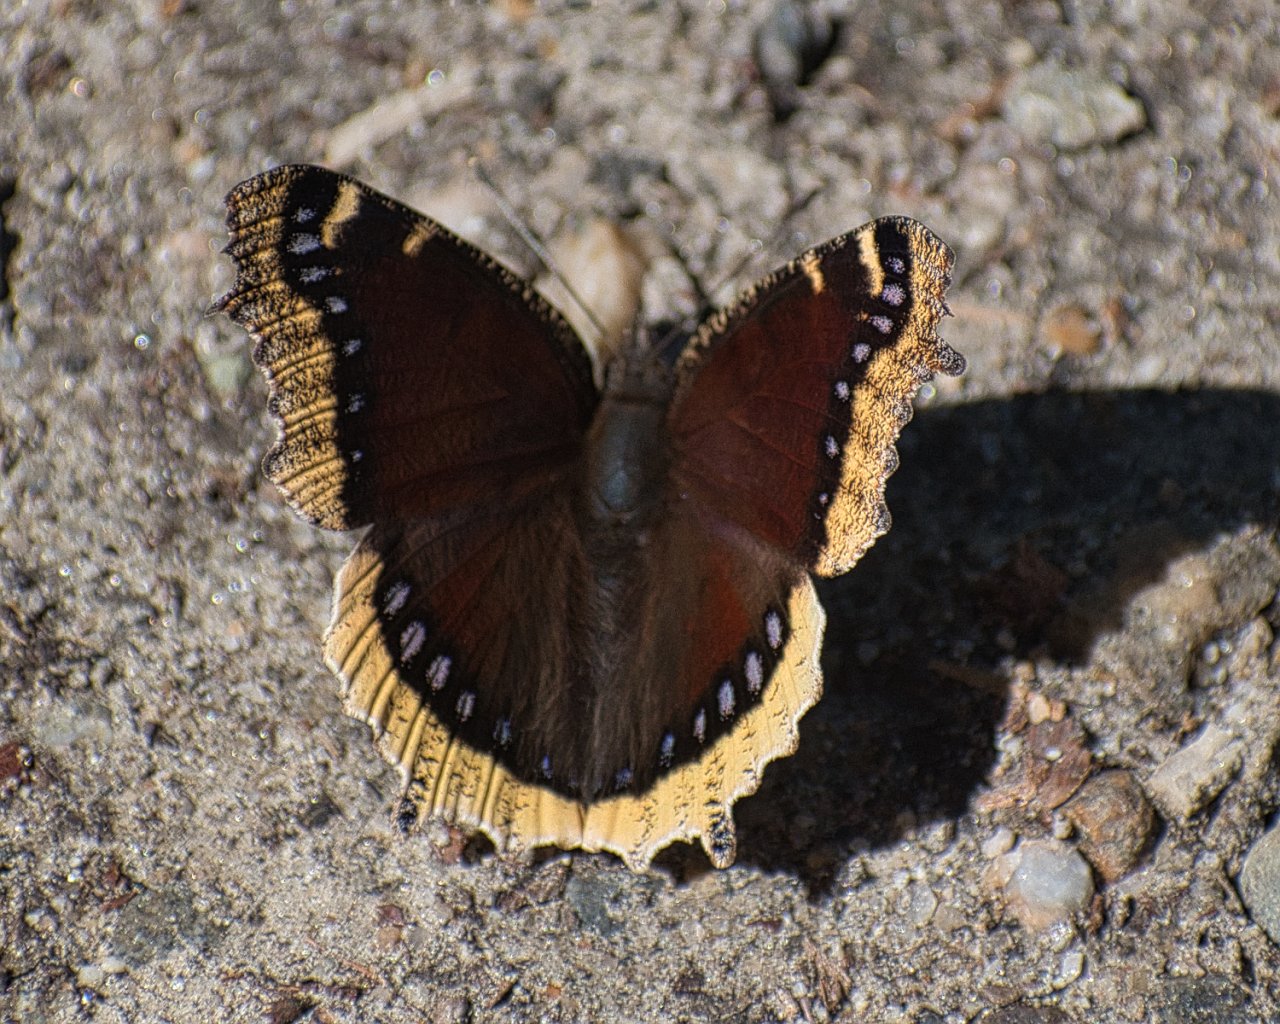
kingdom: Animalia
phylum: Arthropoda
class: Insecta
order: Lepidoptera
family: Nymphalidae
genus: Nymphalis
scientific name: Nymphalis antiopa
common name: Mourning Cloak
